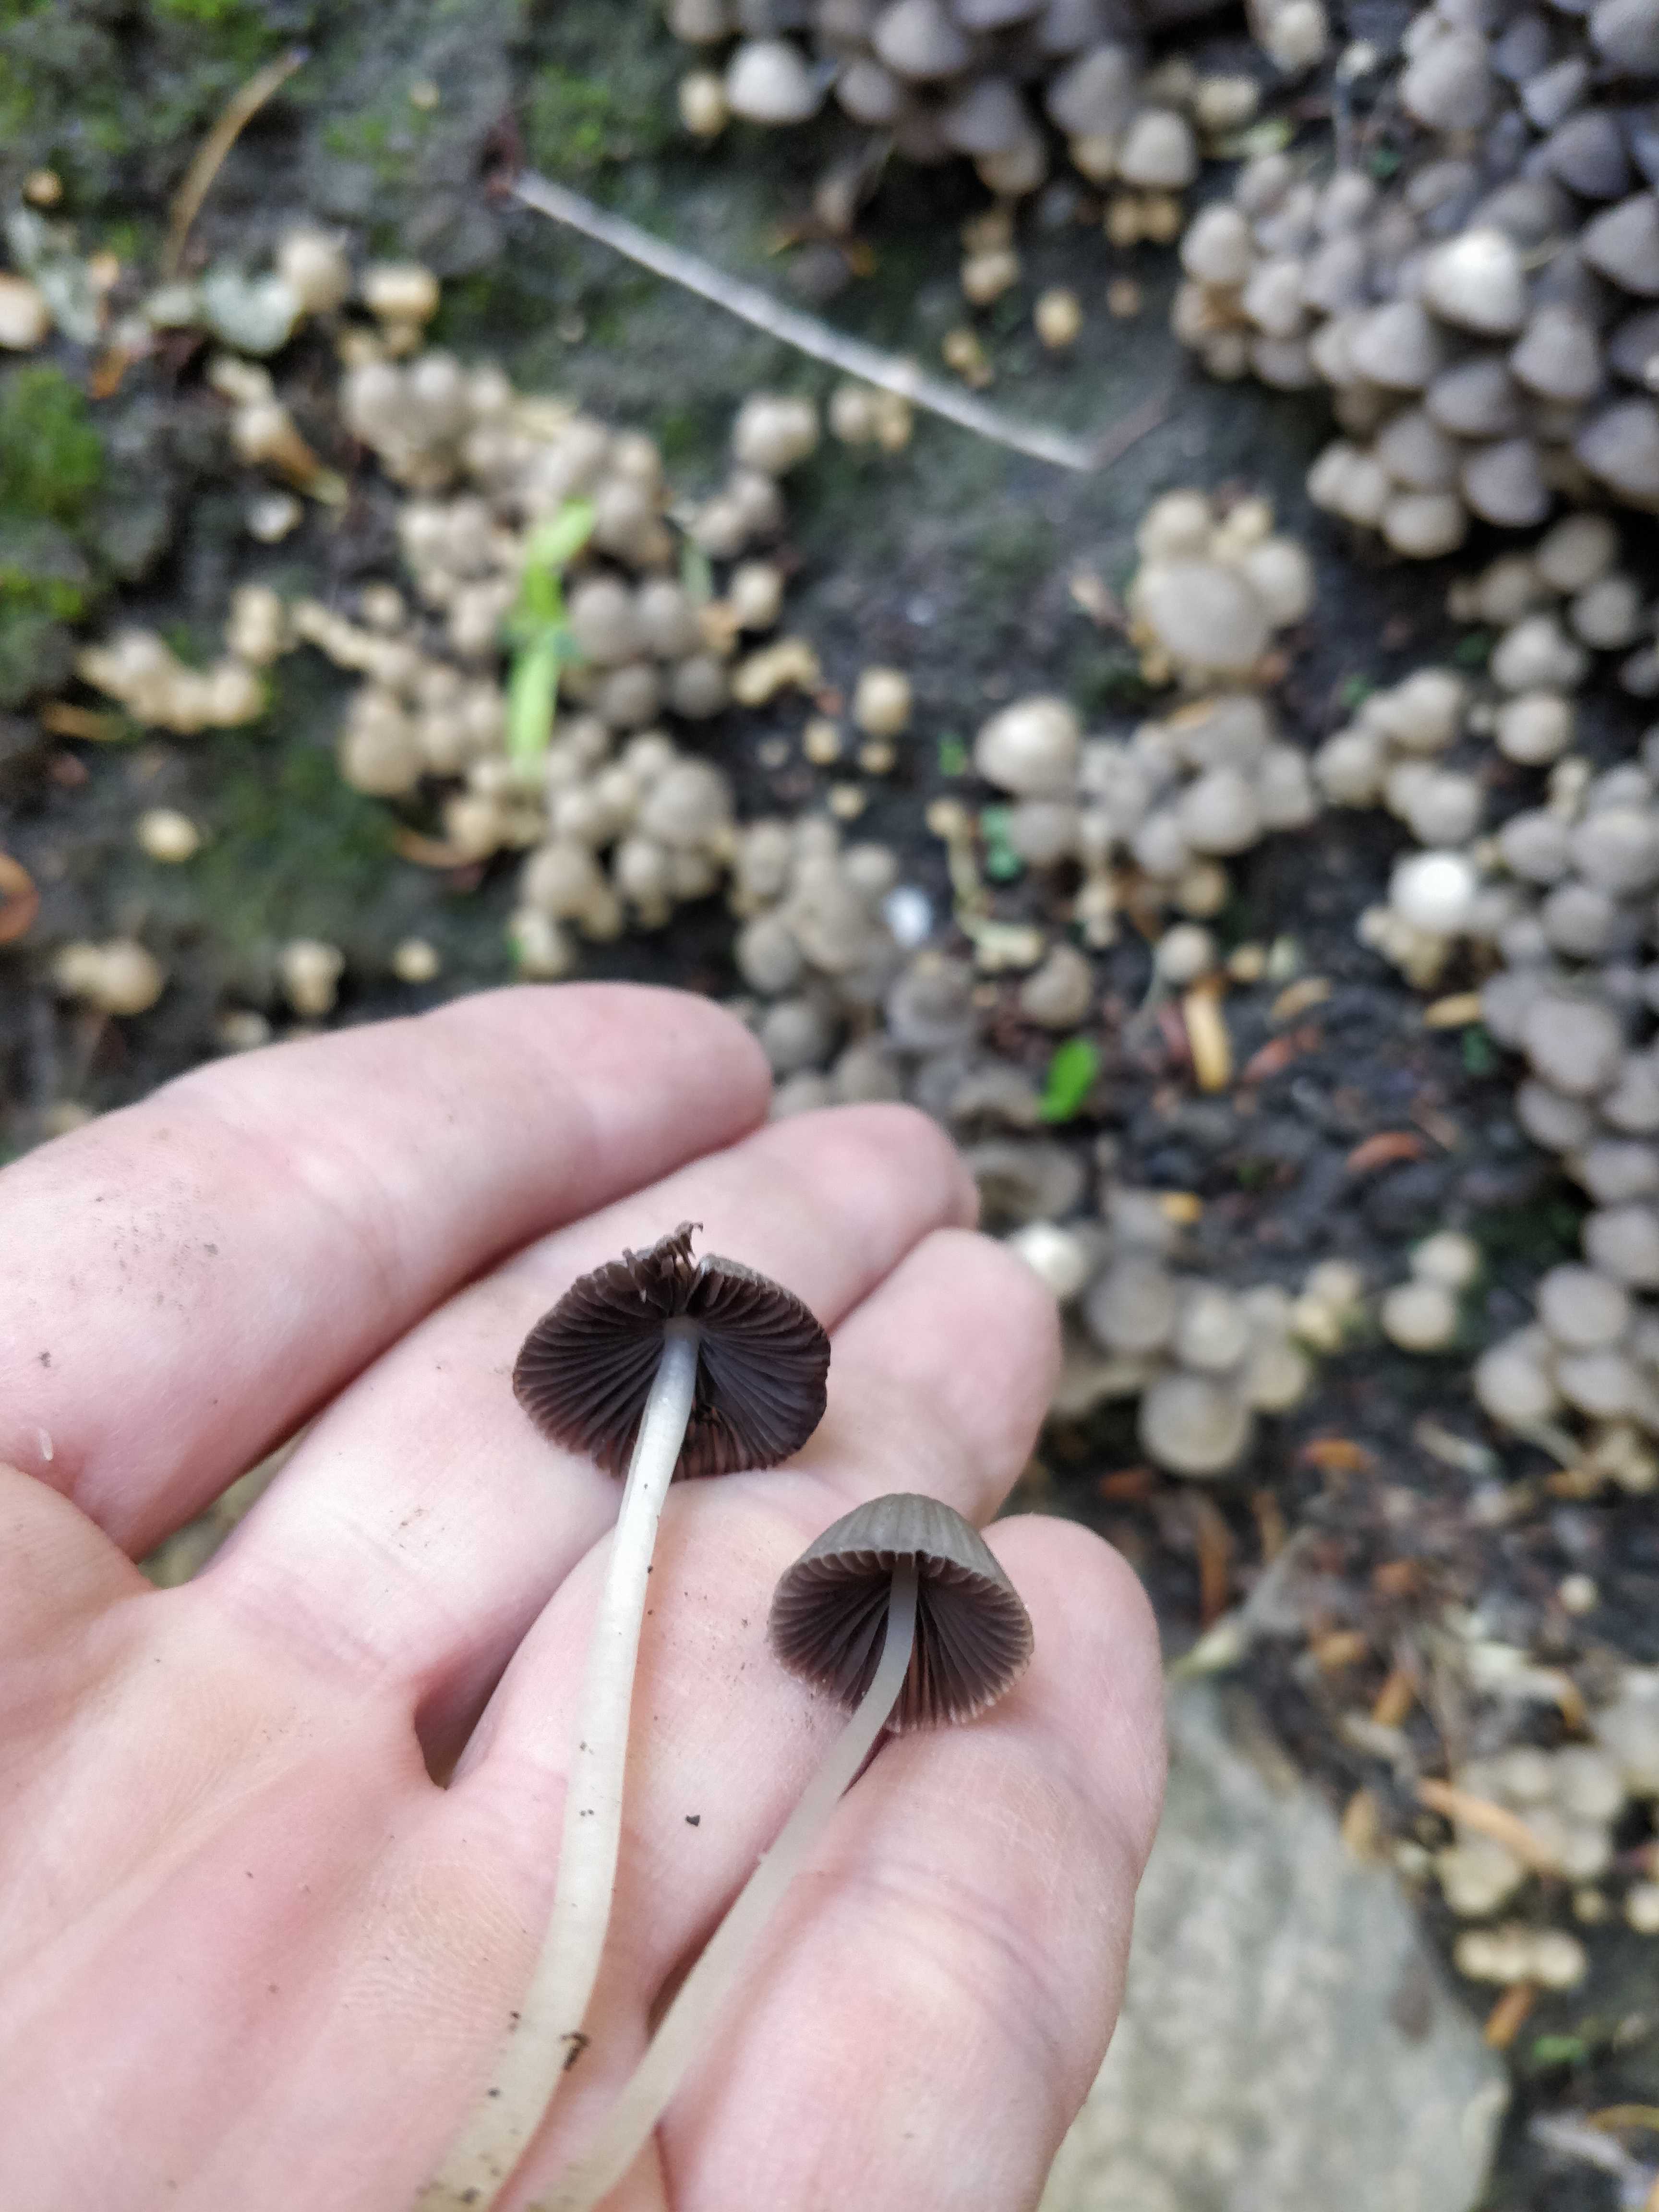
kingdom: Fungi
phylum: Basidiomycota
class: Agaricomycetes
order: Agaricales
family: Psathyrellaceae
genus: Coprinellus
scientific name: Coprinellus disseminatus
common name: bredsået blækhat
